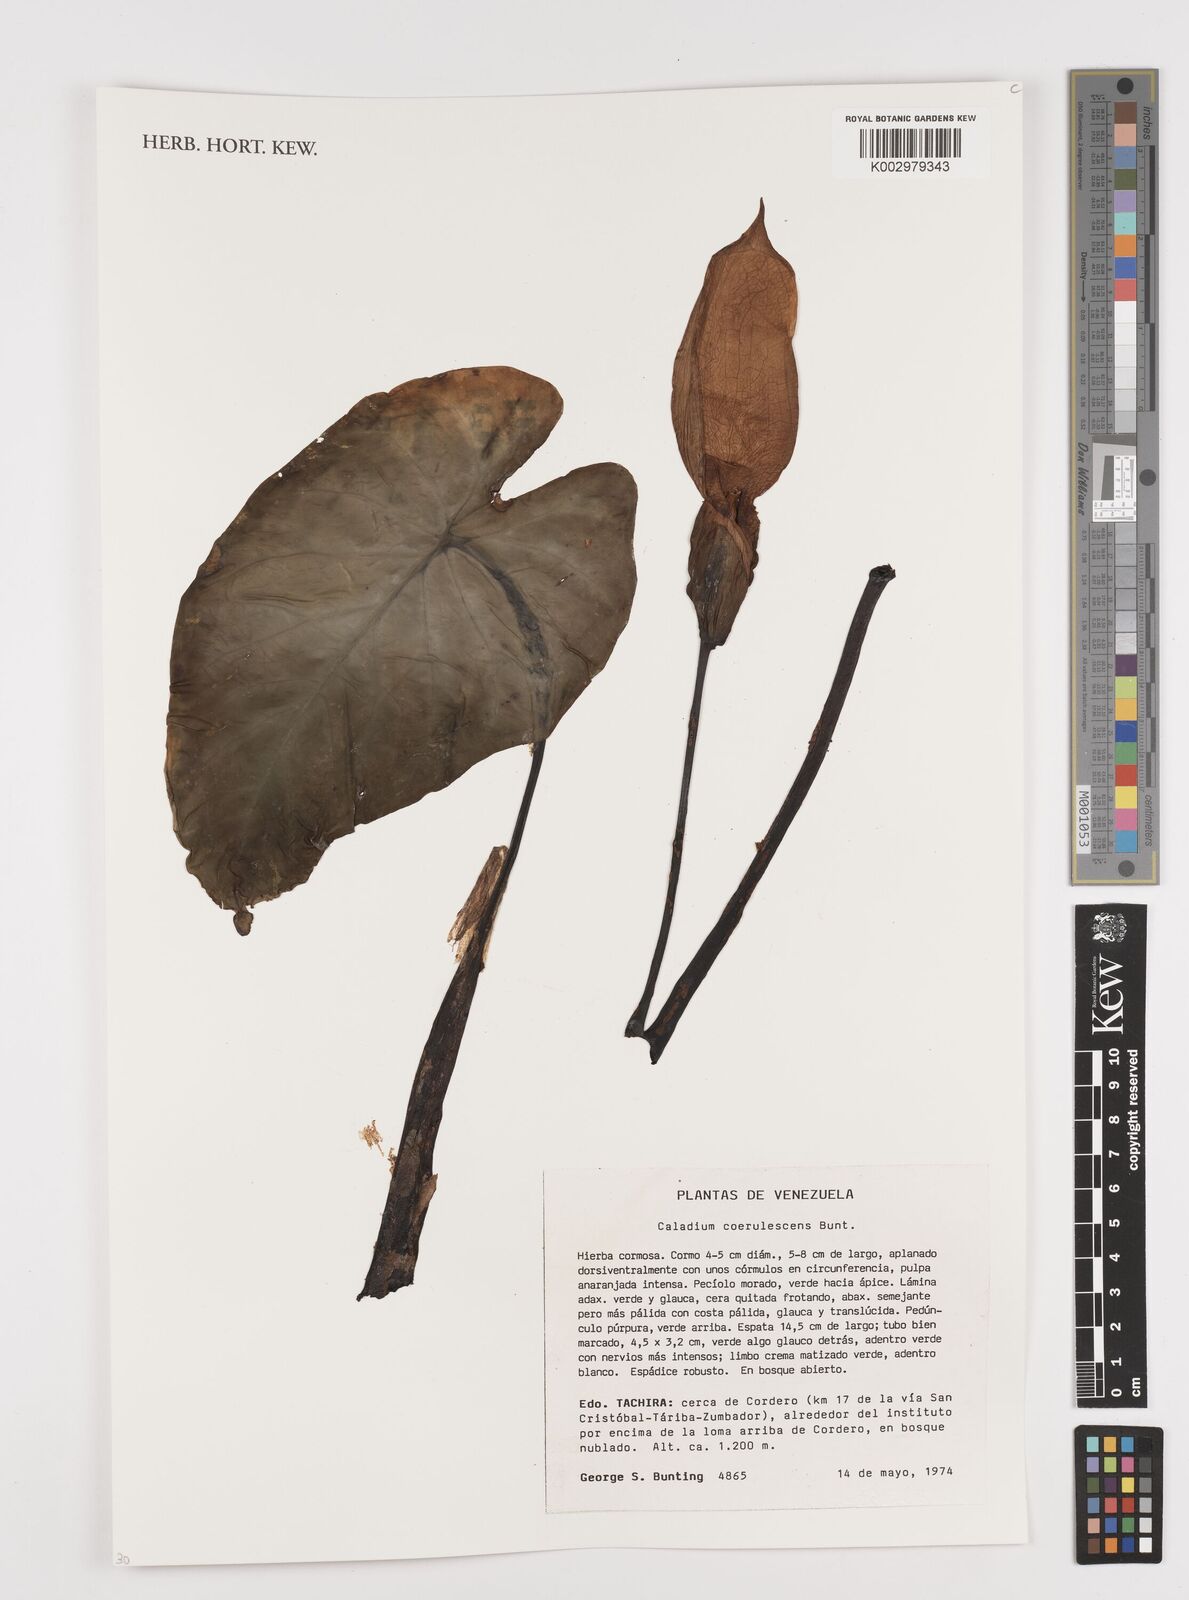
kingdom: Plantae
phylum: Tracheophyta
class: Liliopsida
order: Alismatales
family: Araceae
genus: Caladium
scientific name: Caladium coerulescens
